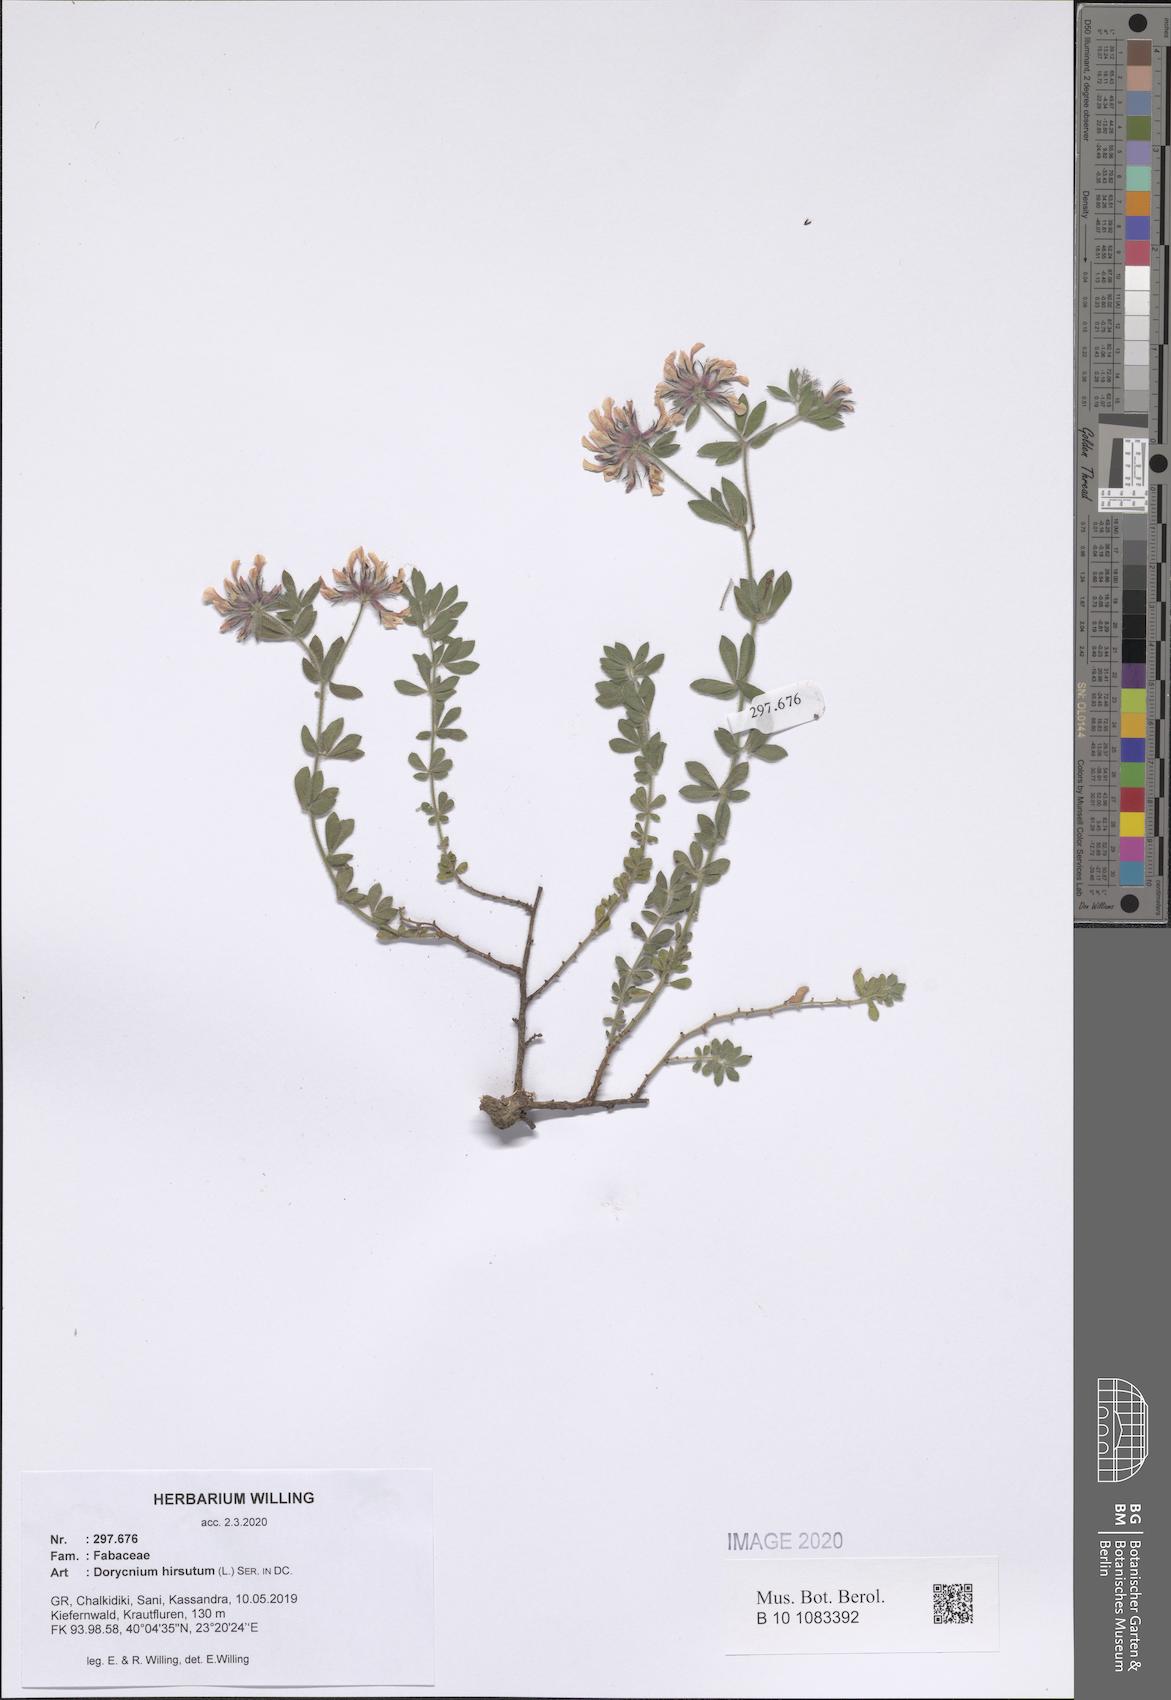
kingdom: Plantae
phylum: Tracheophyta
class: Magnoliopsida
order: Fabales
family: Fabaceae
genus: Lotus
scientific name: Lotus hirsutus
